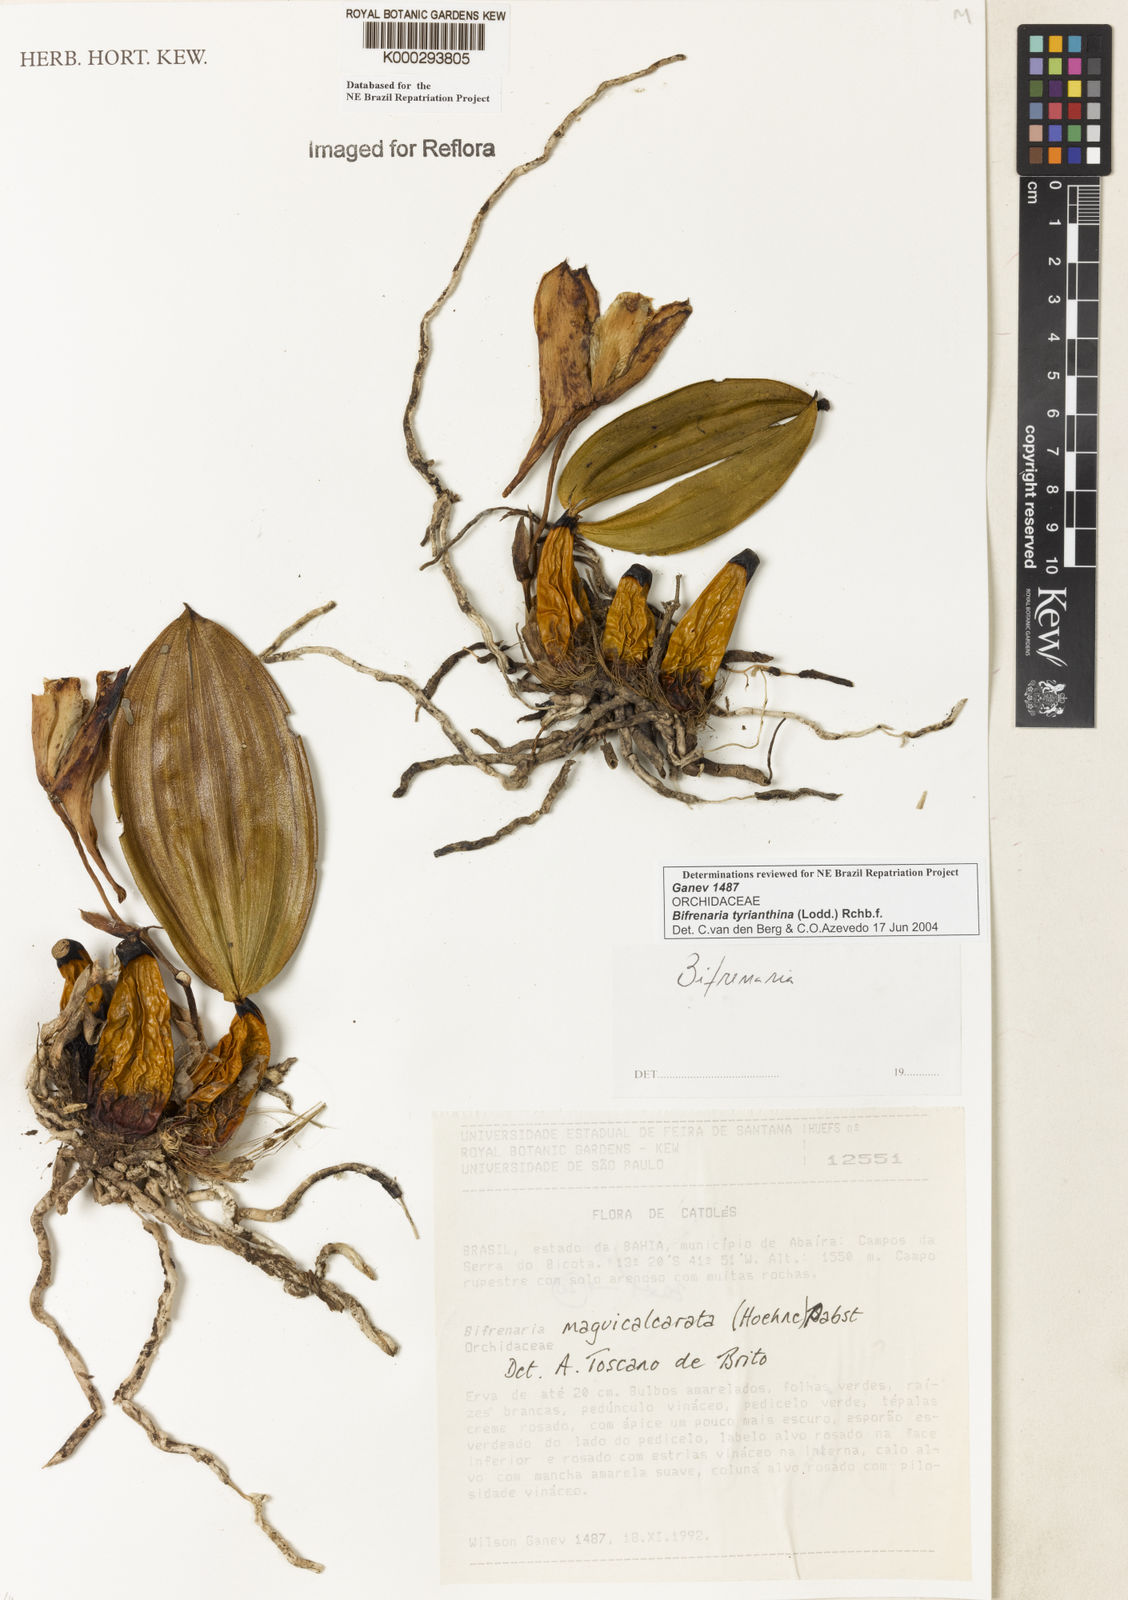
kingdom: Plantae
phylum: Tracheophyta
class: Liliopsida
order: Asparagales
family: Orchidaceae
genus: Bifrenaria
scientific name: Bifrenaria tyrianthina
